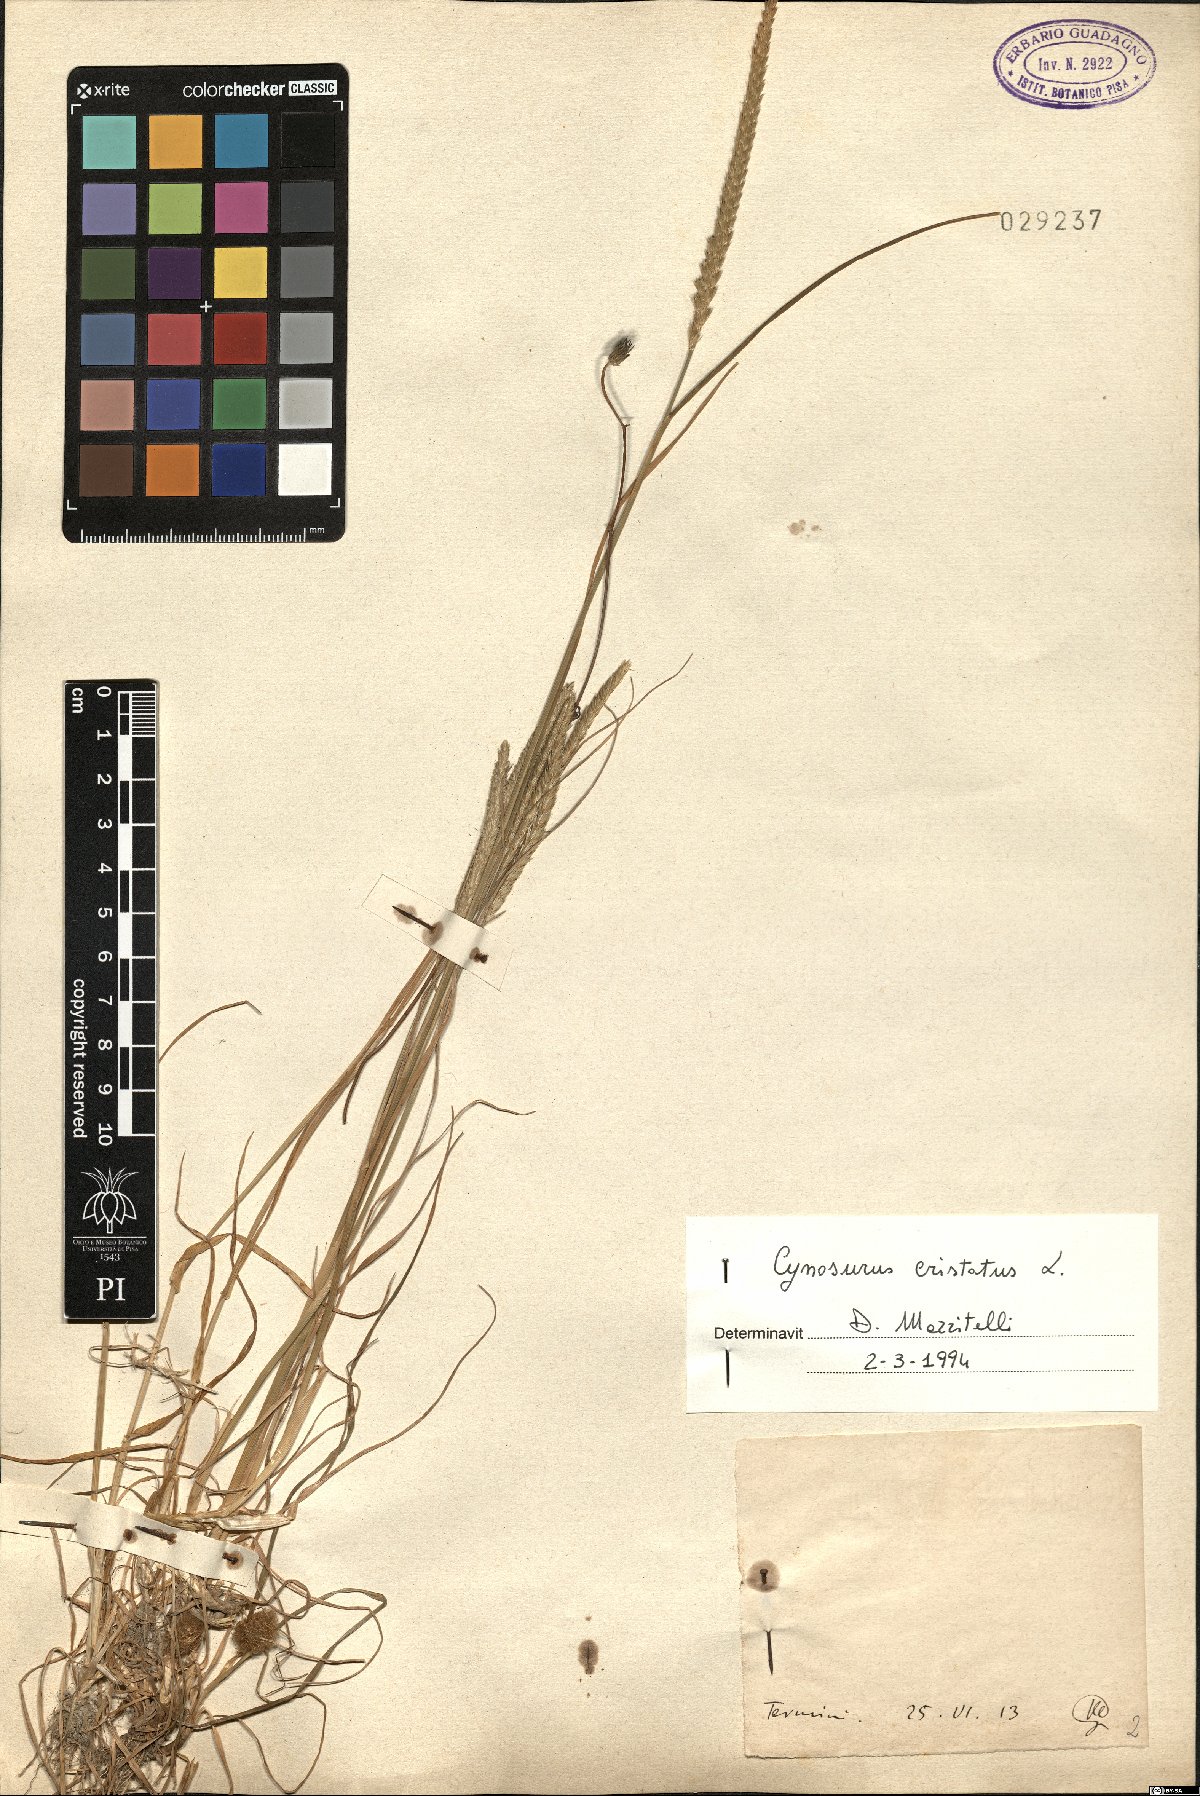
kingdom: Plantae
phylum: Tracheophyta
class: Liliopsida
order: Poales
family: Poaceae
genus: Cynosurus
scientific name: Cynosurus cristatus
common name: Crested dog's-tail
